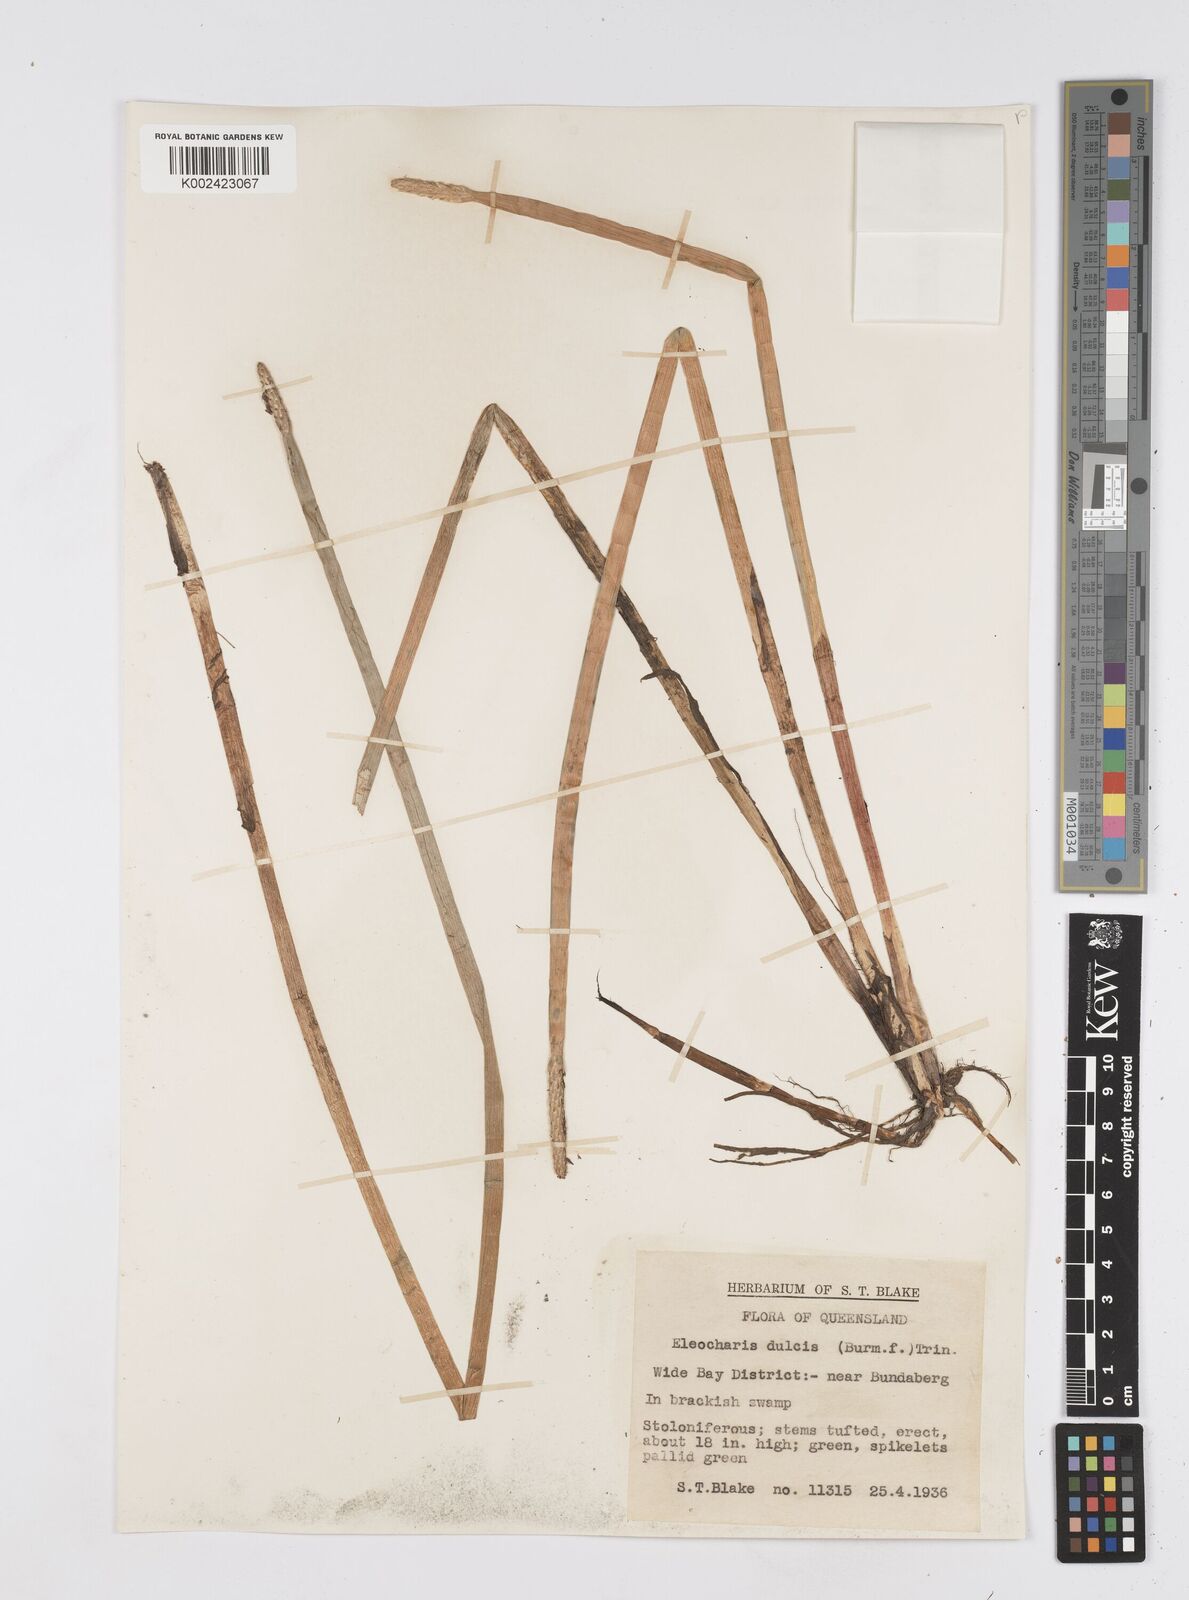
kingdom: Plantae
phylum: Tracheophyta
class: Liliopsida
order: Poales
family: Cyperaceae
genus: Eleocharis
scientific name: Eleocharis dulcis
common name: Chinese water chestnut
